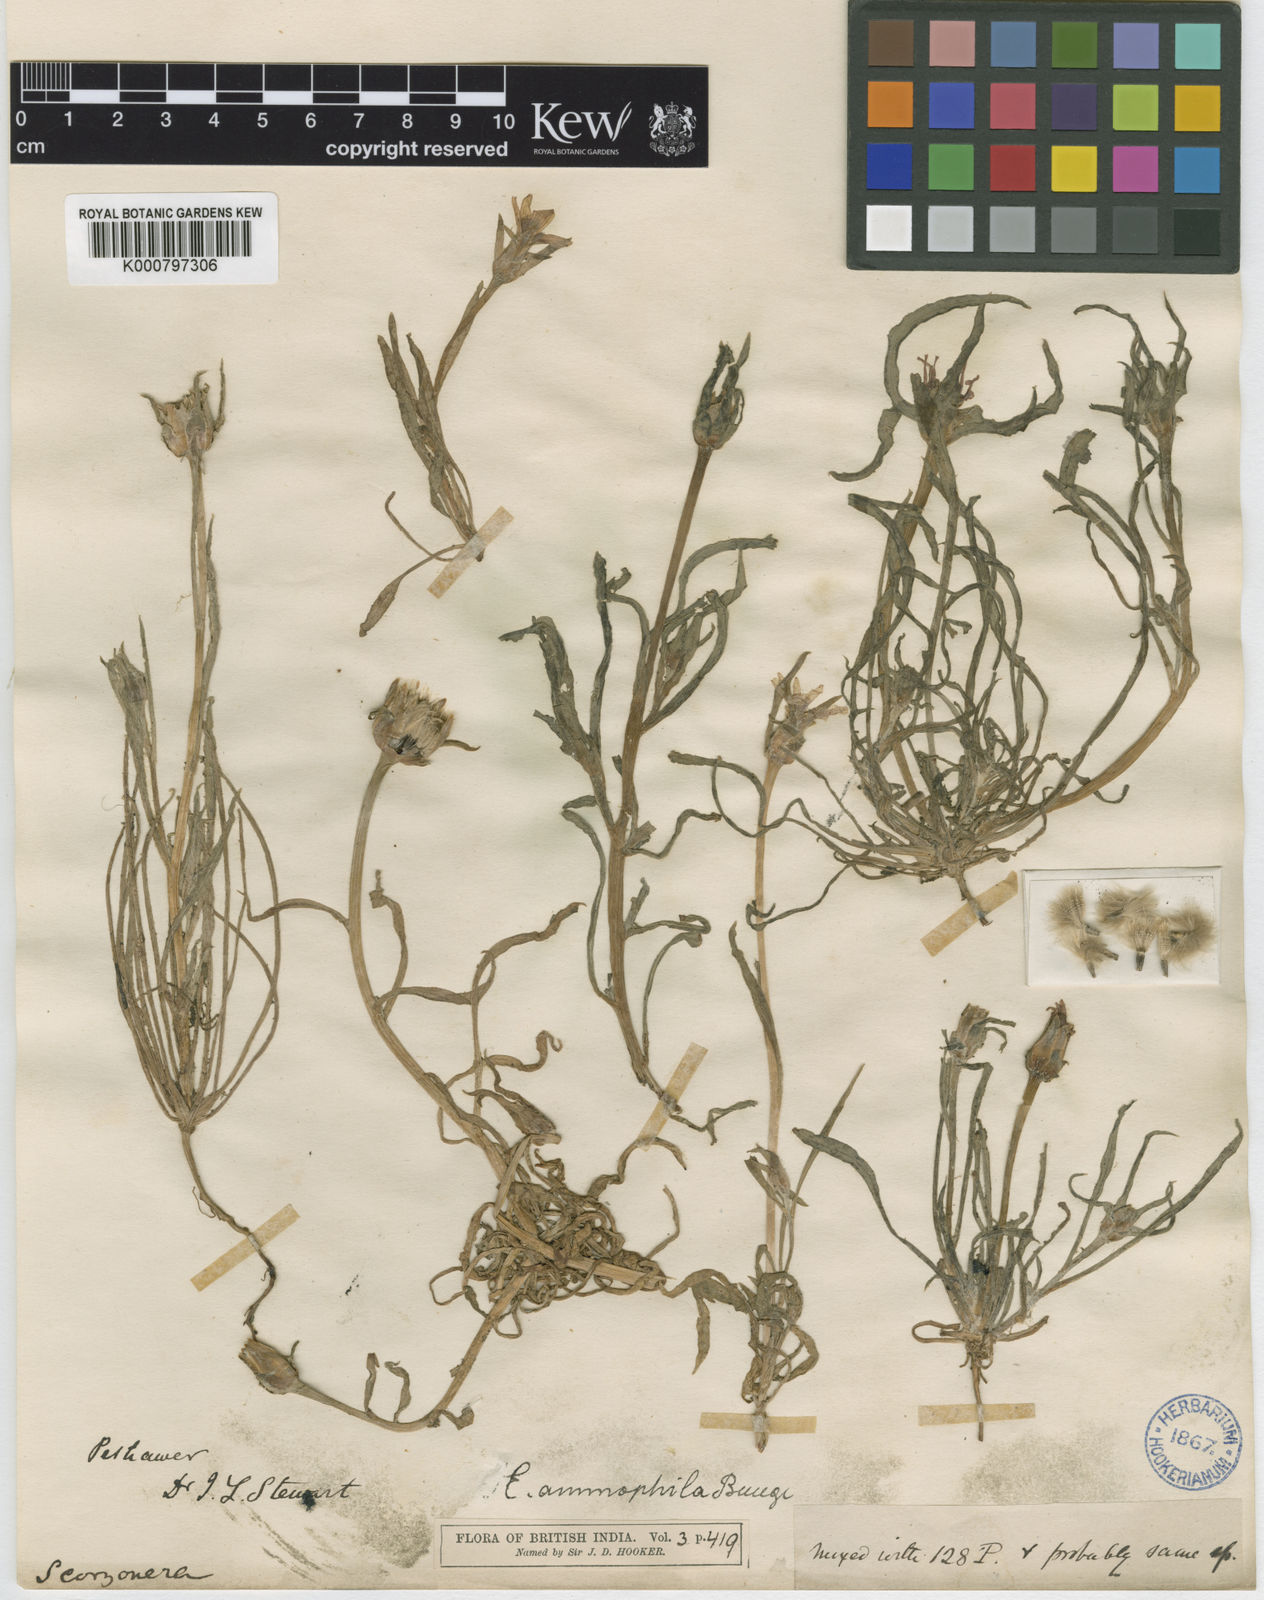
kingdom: Plantae
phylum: Tracheophyta
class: Magnoliopsida
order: Asterales
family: Asteraceae
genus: Epilasia
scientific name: Epilasia
